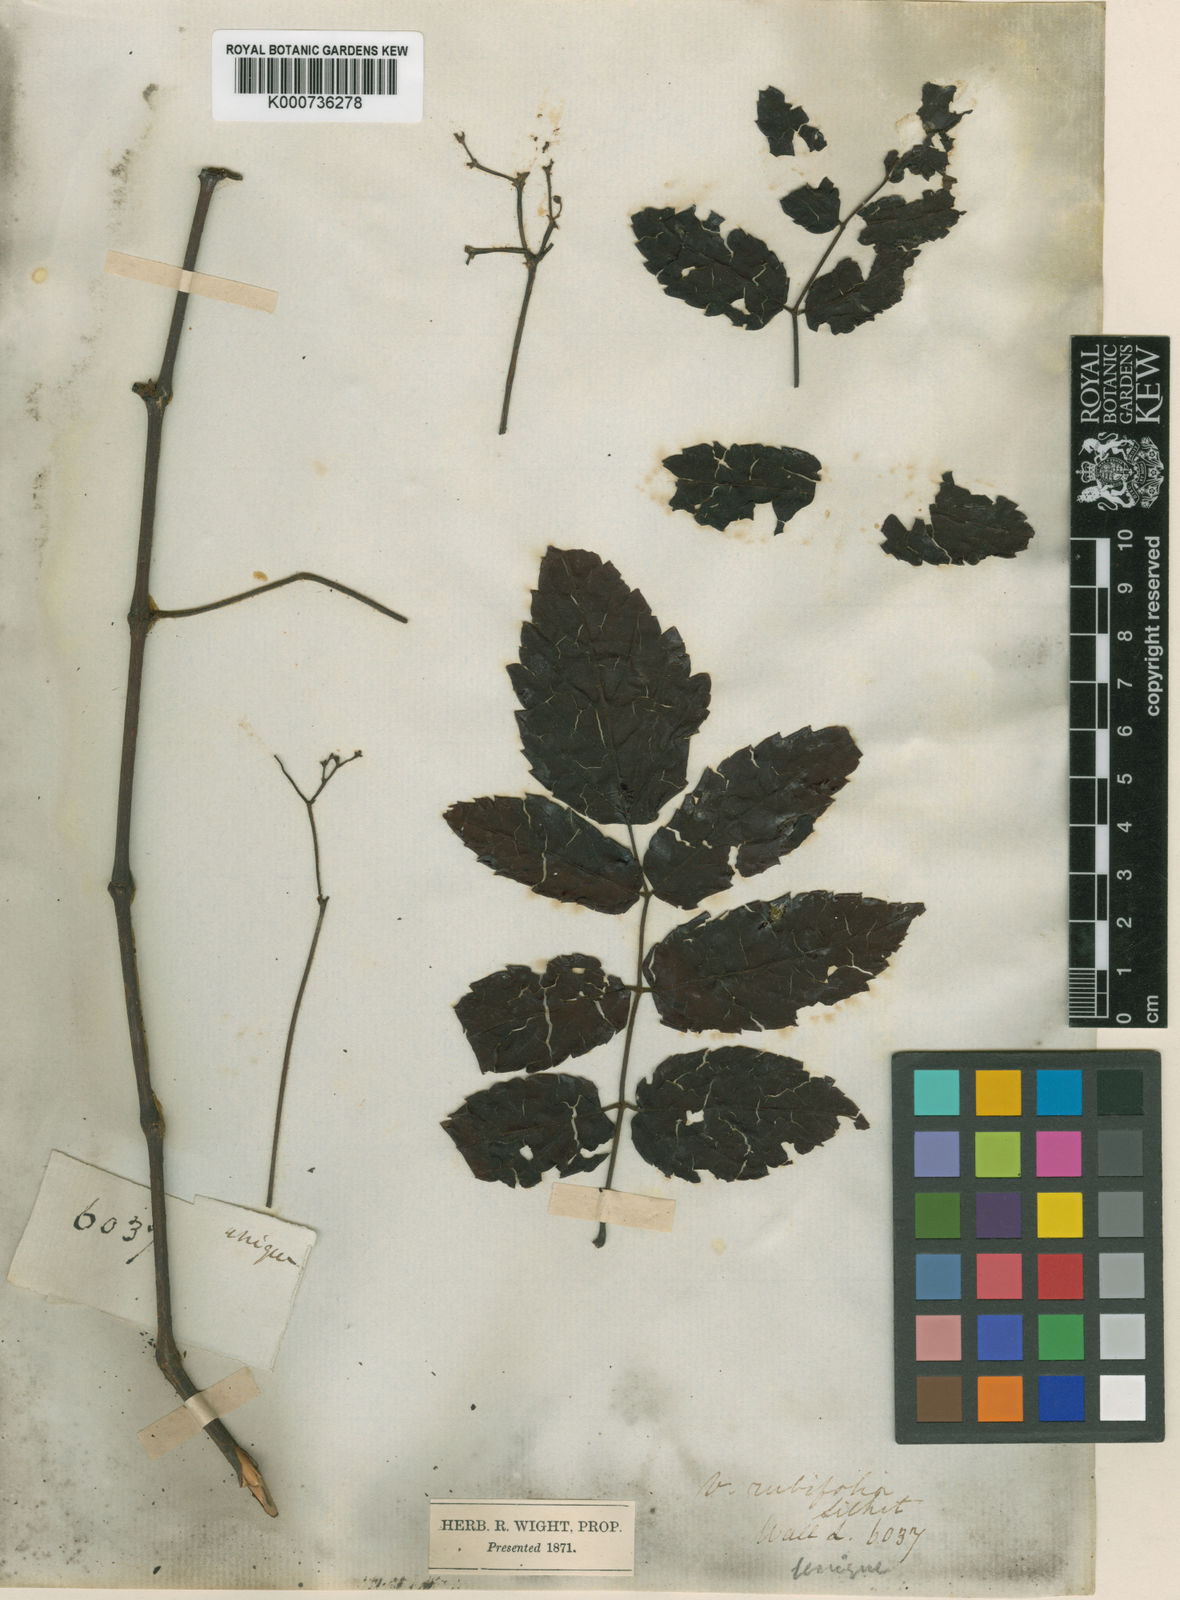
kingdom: Plantae
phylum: Tracheophyta
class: Magnoliopsida
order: Vitales
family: Vitaceae
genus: Nekemias
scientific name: Nekemias rubifolia
